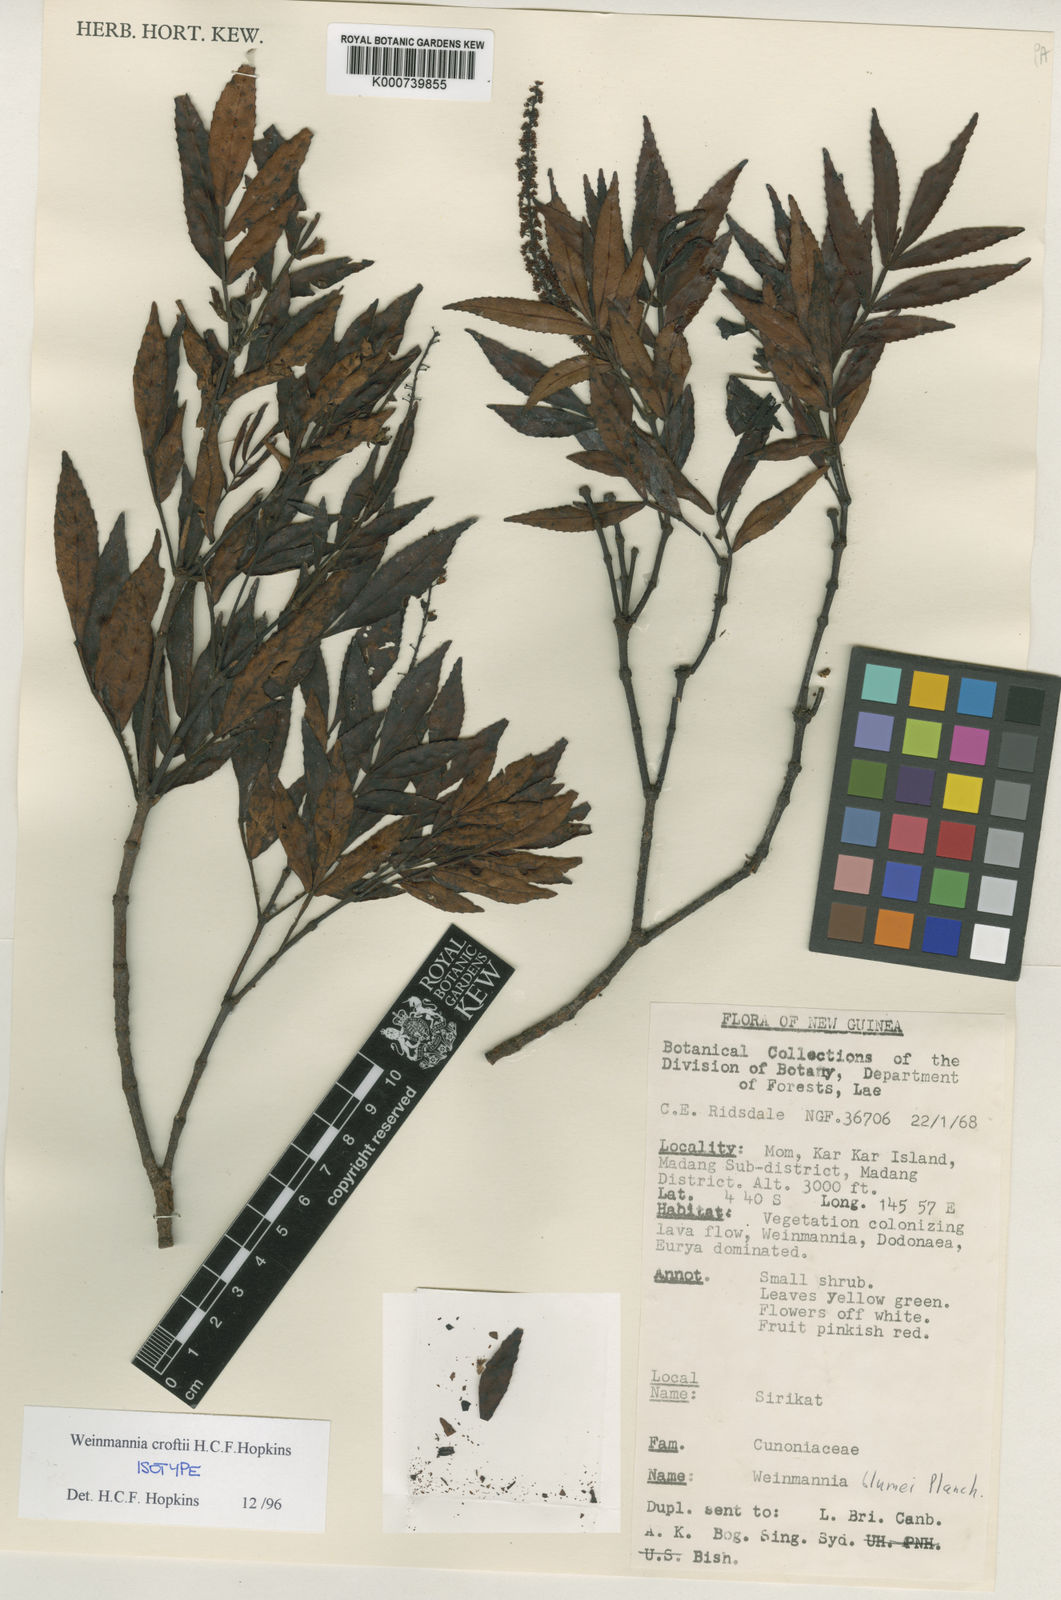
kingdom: Plantae
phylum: Tracheophyta
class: Magnoliopsida
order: Oxalidales
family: Cunoniaceae
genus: Pterophylla
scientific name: Pterophylla croftii
